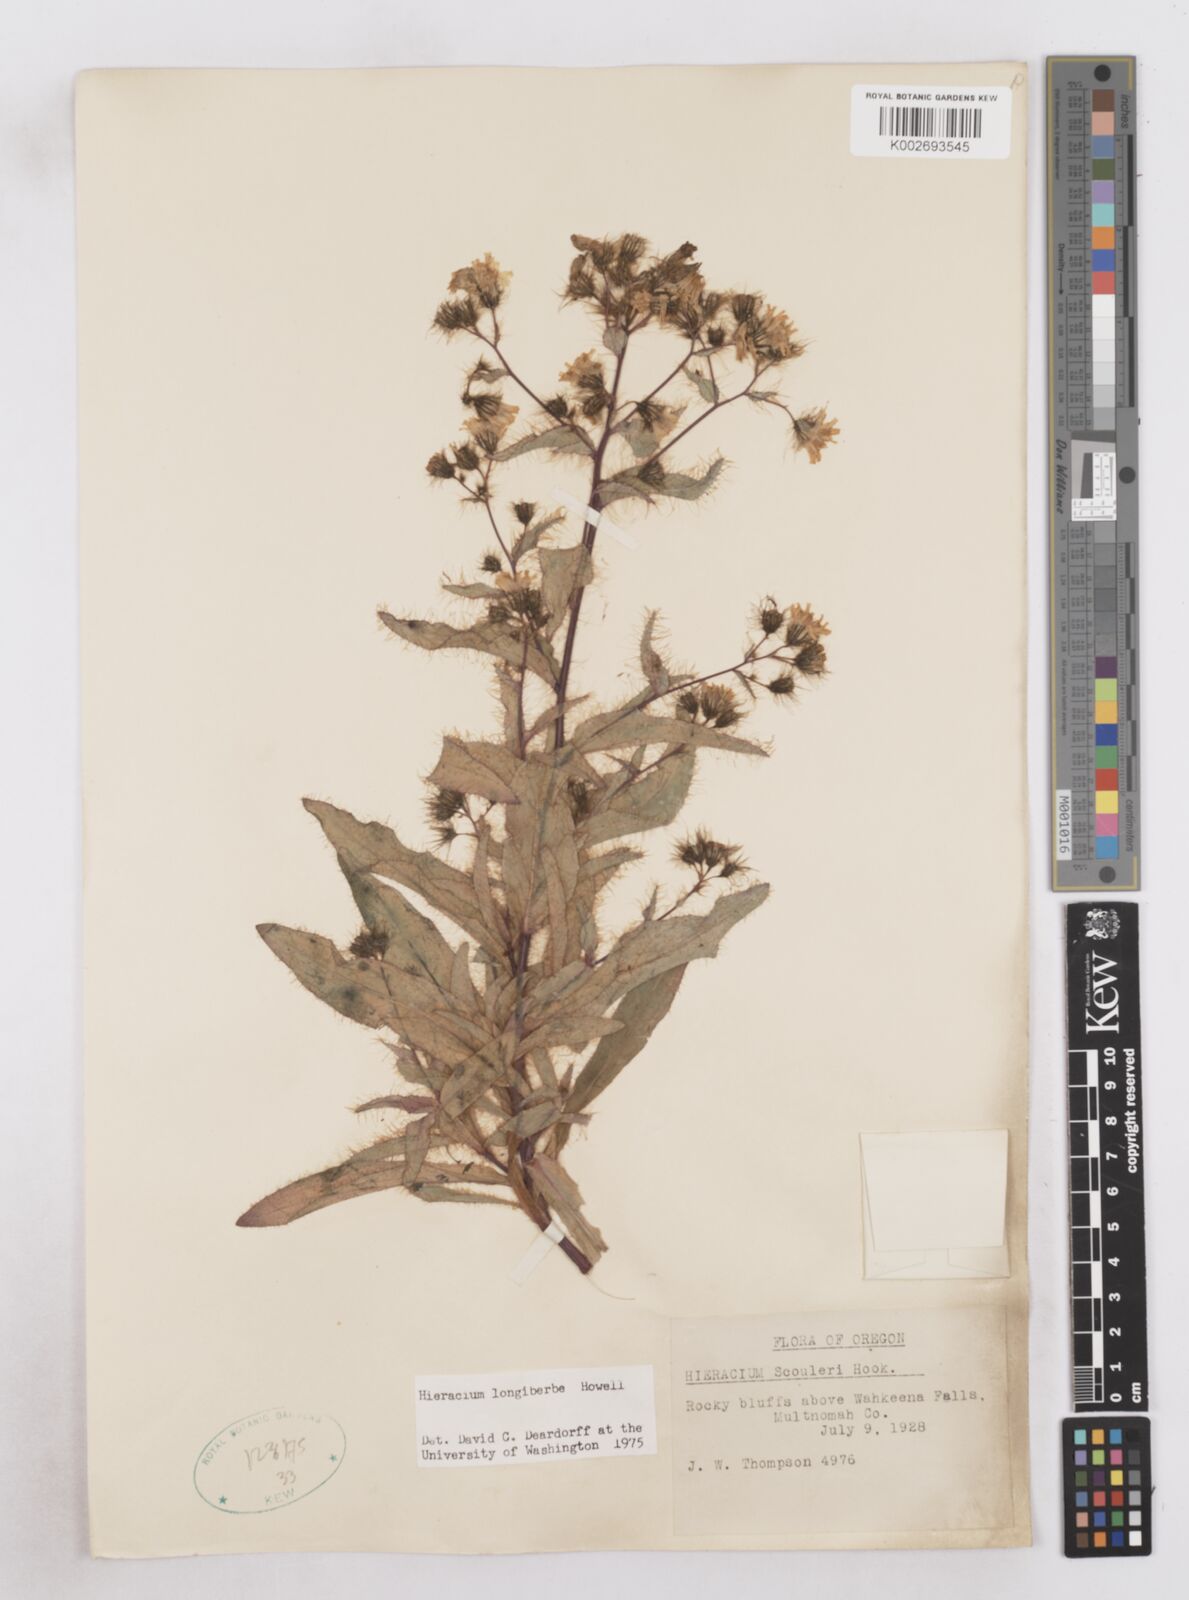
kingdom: Plantae
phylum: Tracheophyta
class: Magnoliopsida
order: Asterales
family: Asteraceae
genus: Hieracium
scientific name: Hieracium longiberbe
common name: Long-bearded hawkweed
